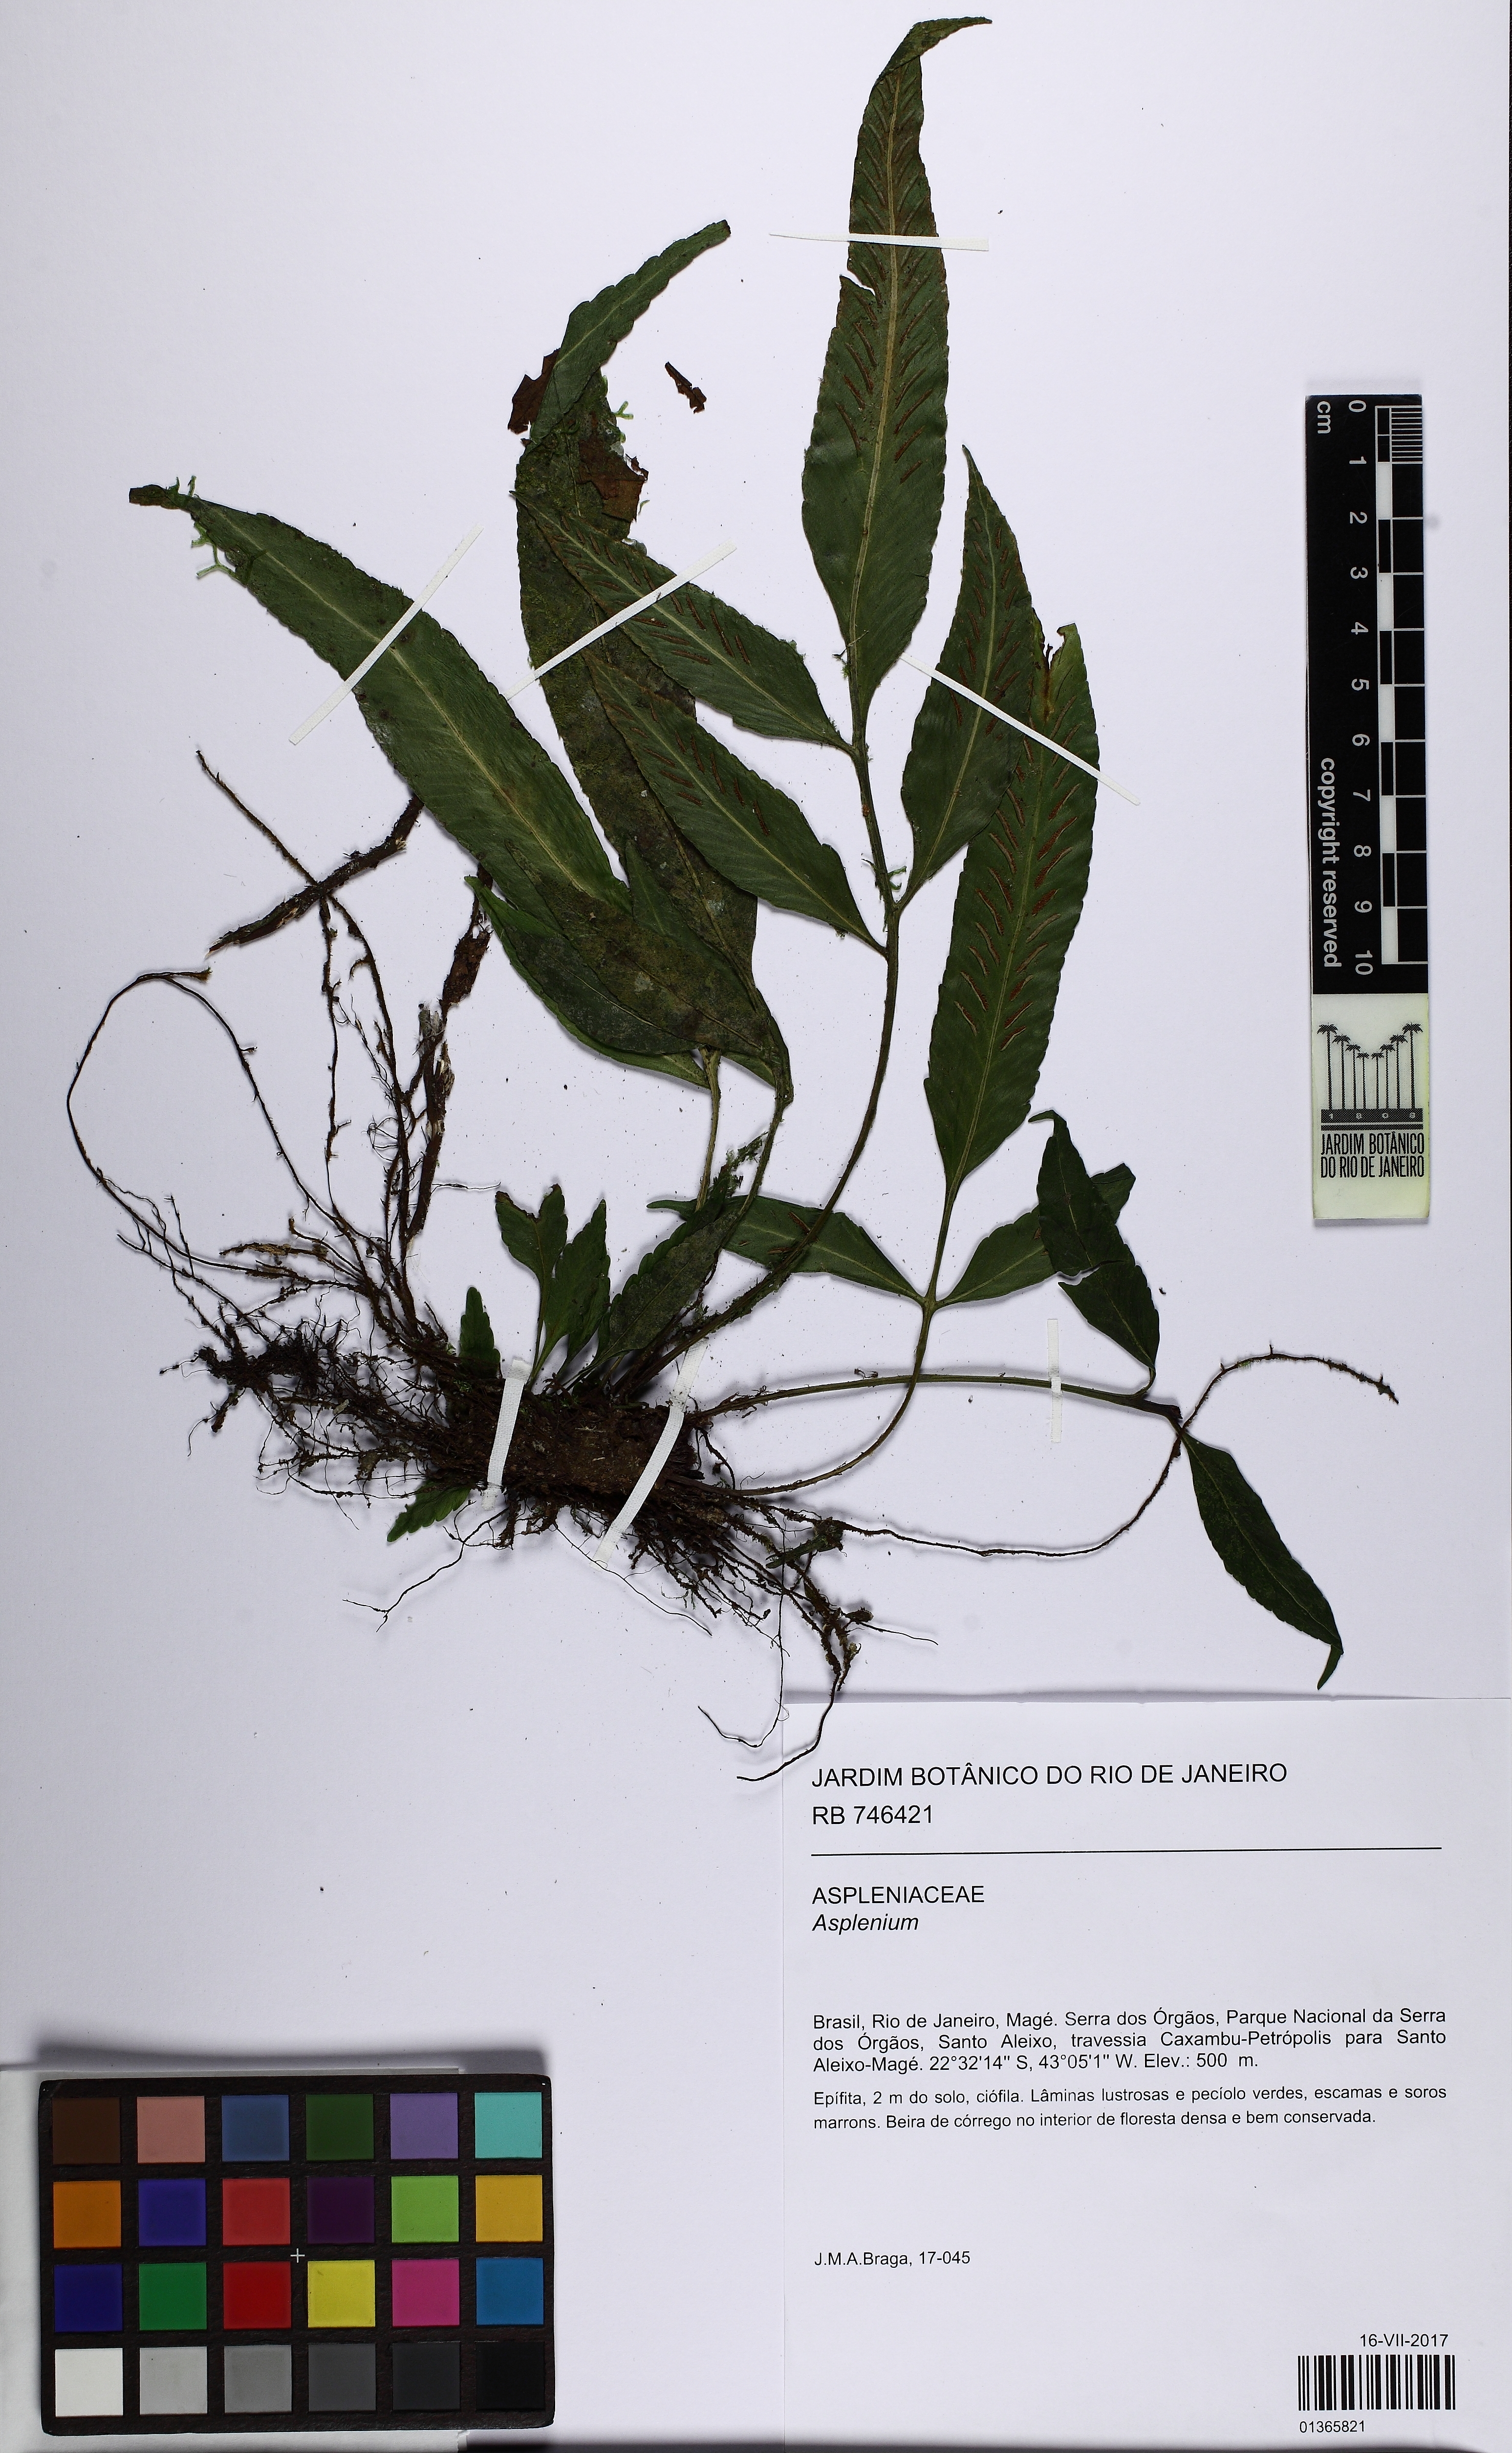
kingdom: Plantae
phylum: Tracheophyta
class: Polypodiopsida
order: Polypodiales
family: Aspleniaceae
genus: Asplenium
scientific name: Asplenium oligophyllum
